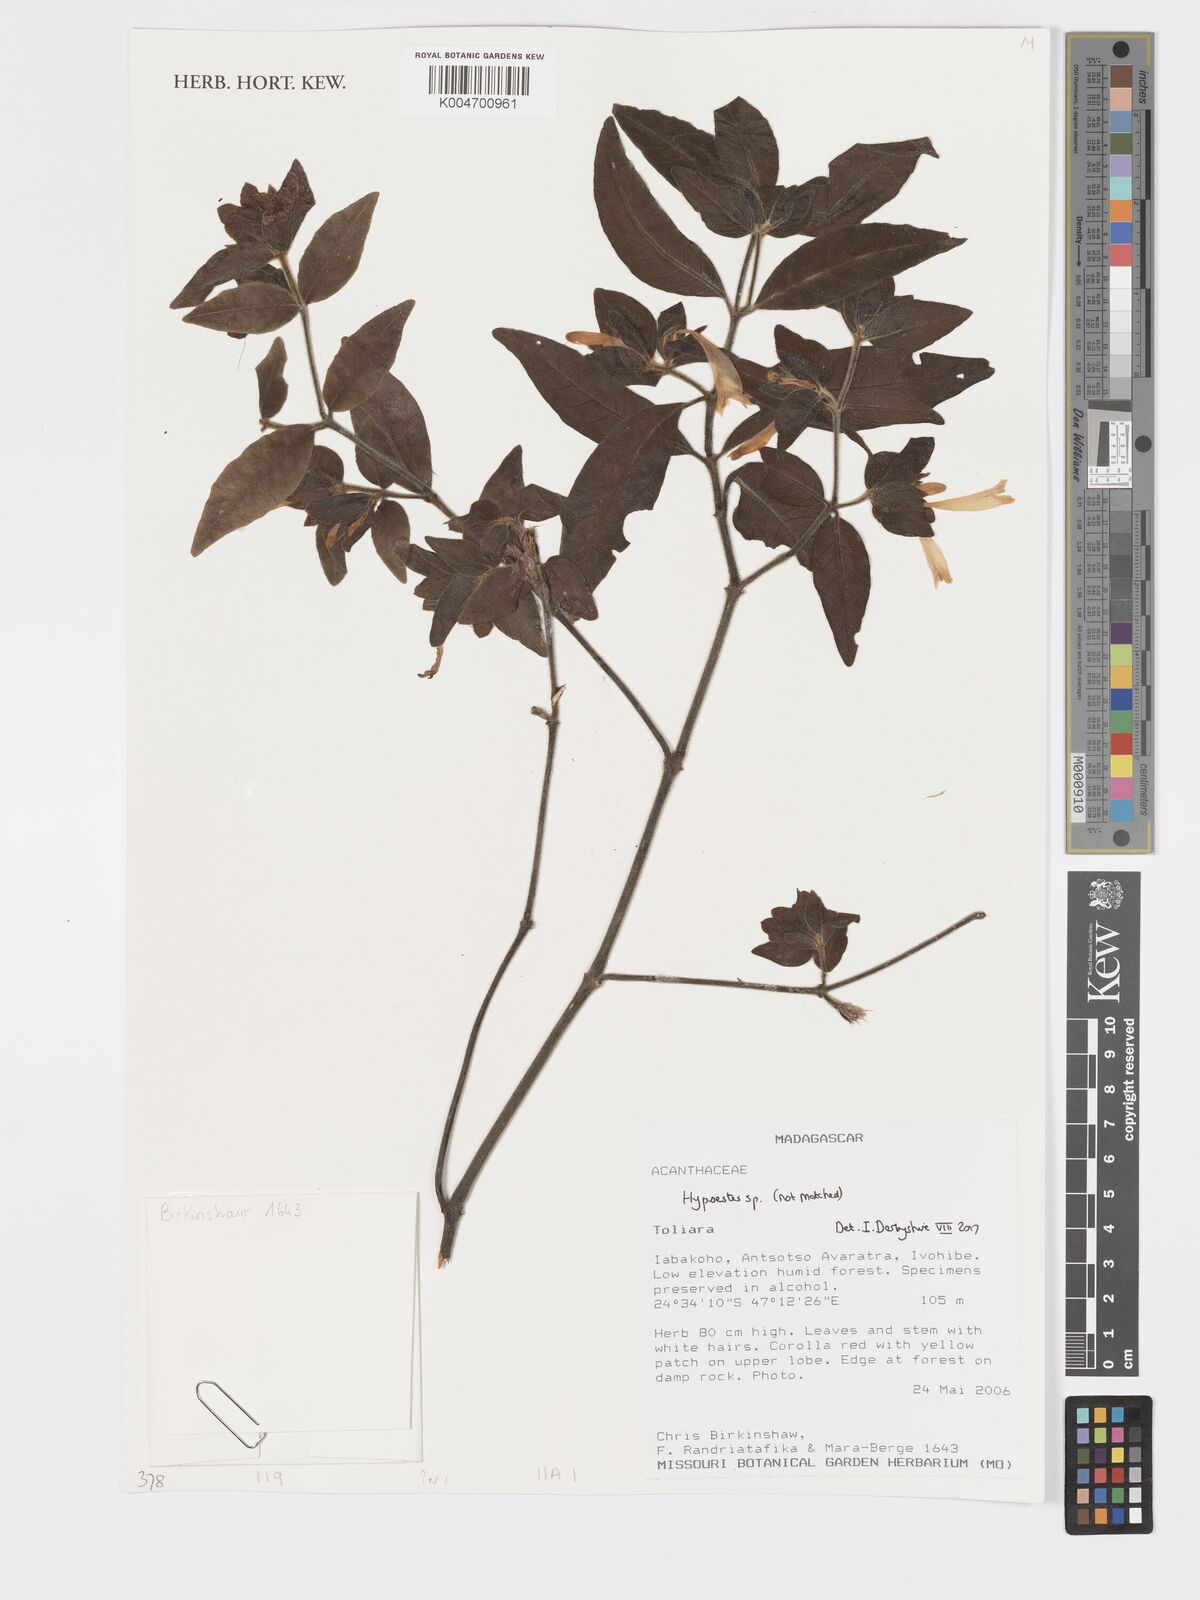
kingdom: Plantae
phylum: Tracheophyta
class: Magnoliopsida
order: Lamiales
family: Acanthaceae
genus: Hypoestes
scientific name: Hypoestes
